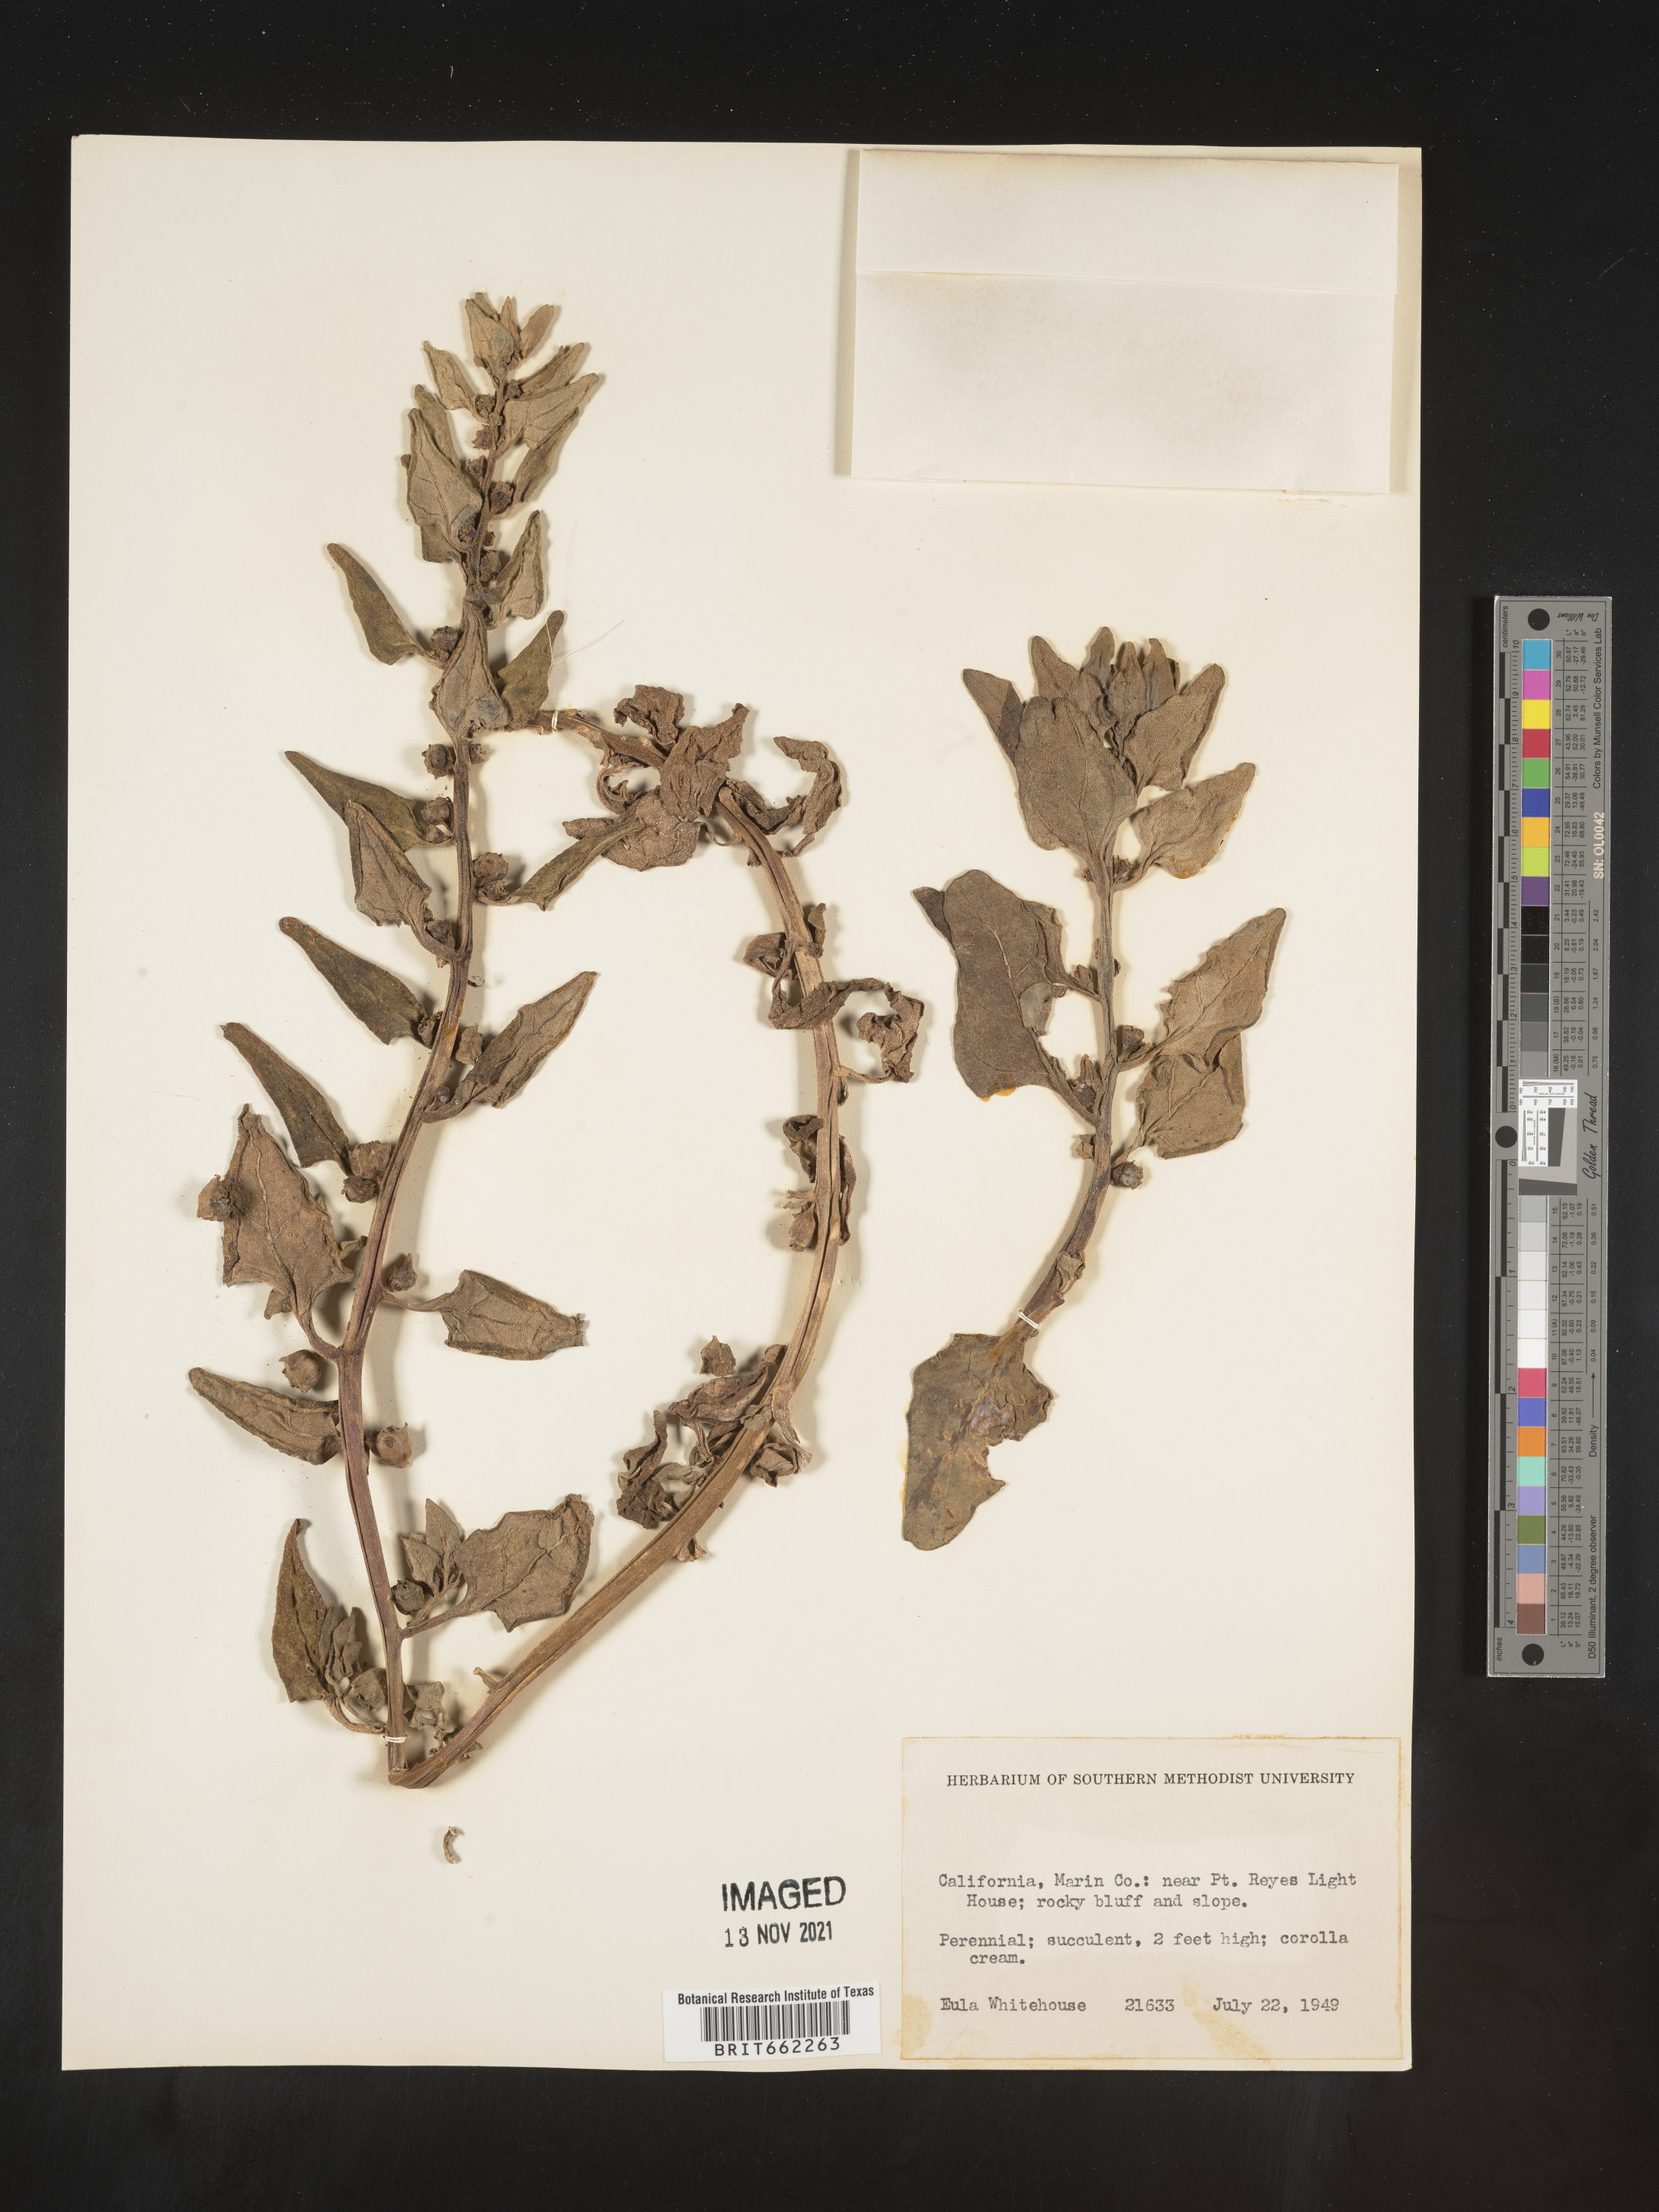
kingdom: Plantae
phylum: Tracheophyta
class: Magnoliopsida
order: Caryophyllales
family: Aizoaceae
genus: Mesembryanthemum
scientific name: Mesembryanthemum
